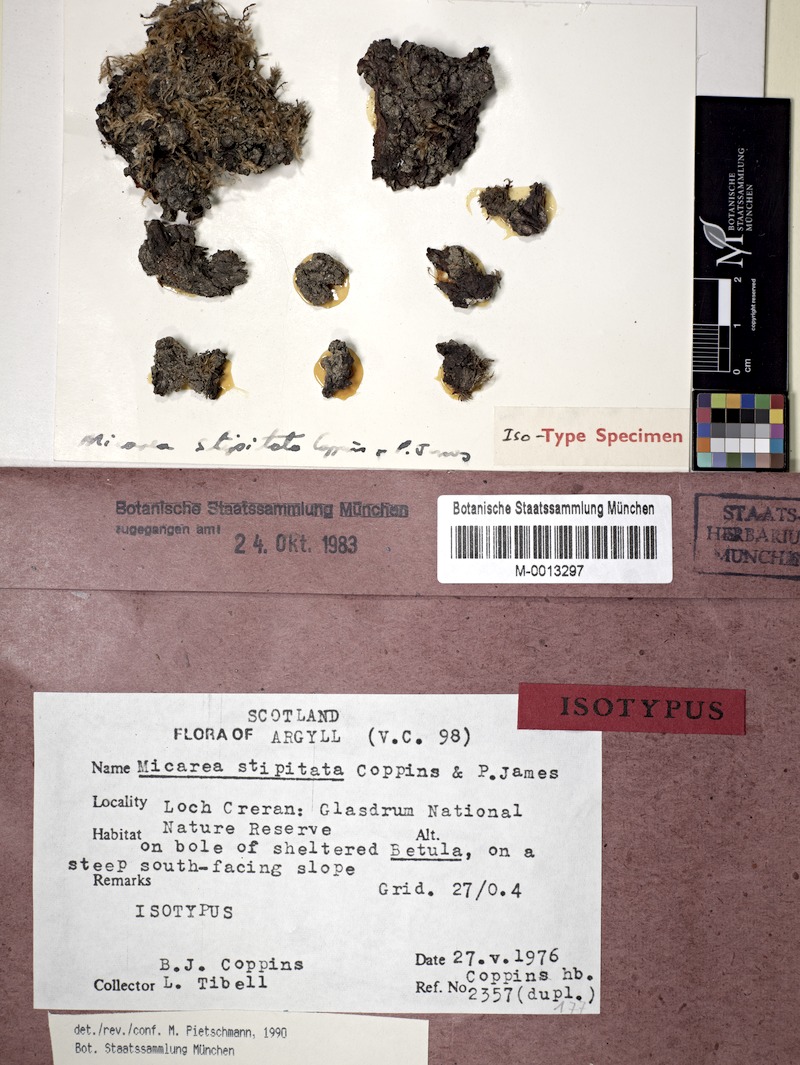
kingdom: Fungi
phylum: Ascomycota
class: Lecanoromycetes
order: Lecanorales
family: Byssolomataceae
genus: Micarea
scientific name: Micarea stipitata
